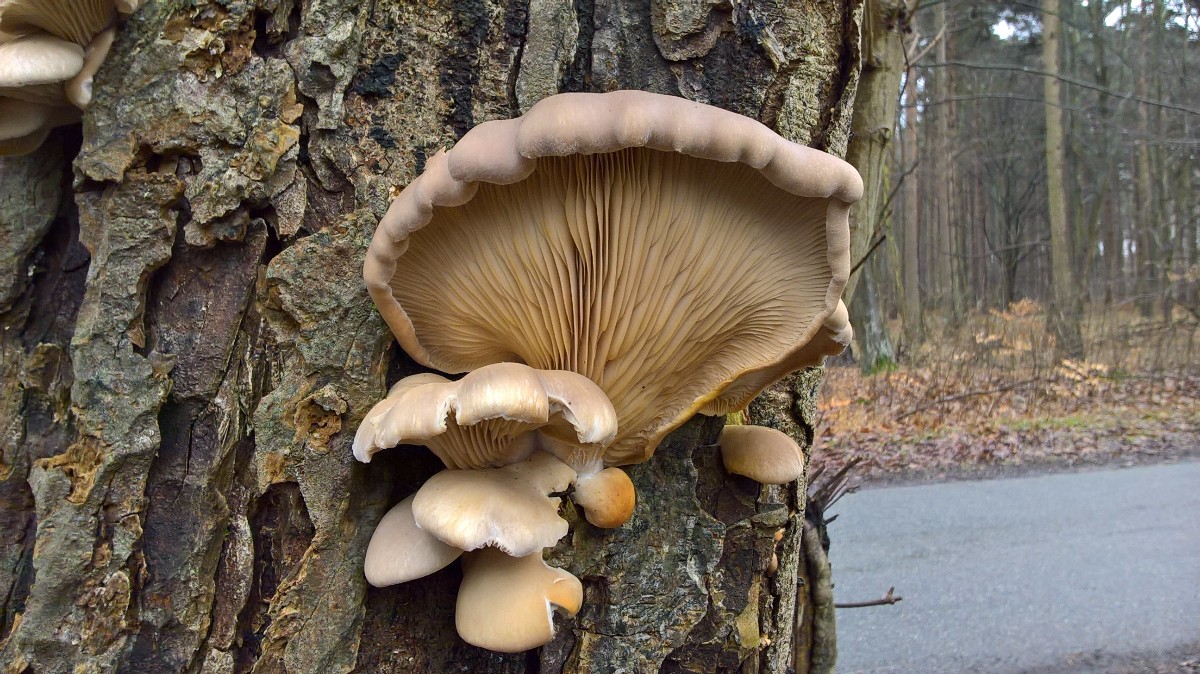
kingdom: Fungi
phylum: Basidiomycota
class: Agaricomycetes
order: Agaricales
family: Pleurotaceae
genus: Pleurotus
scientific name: Pleurotus ostreatus
